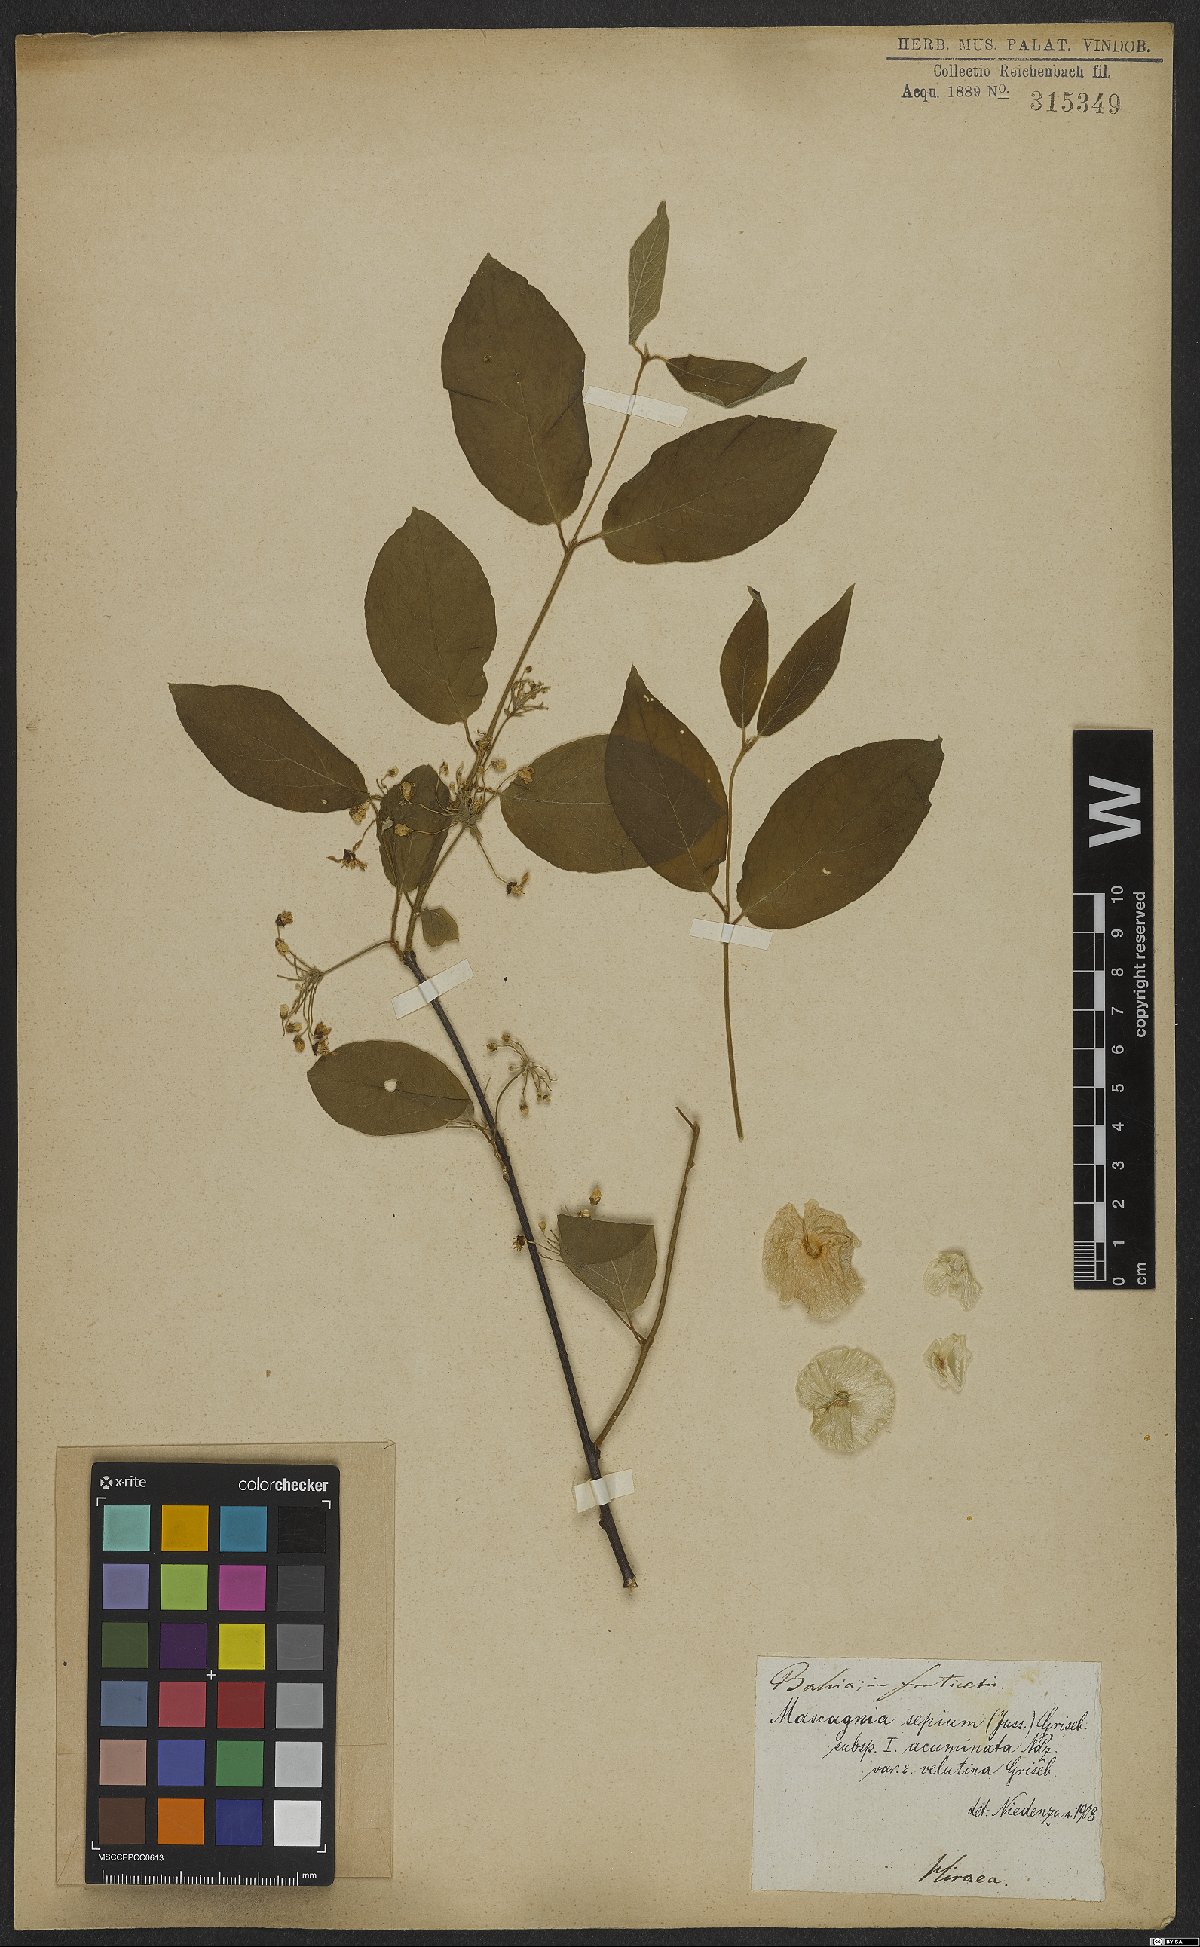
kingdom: Plantae
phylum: Tracheophyta
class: Magnoliopsida
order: Malpighiales
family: Malpighiaceae
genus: Mascagnia
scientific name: Mascagnia sepium
